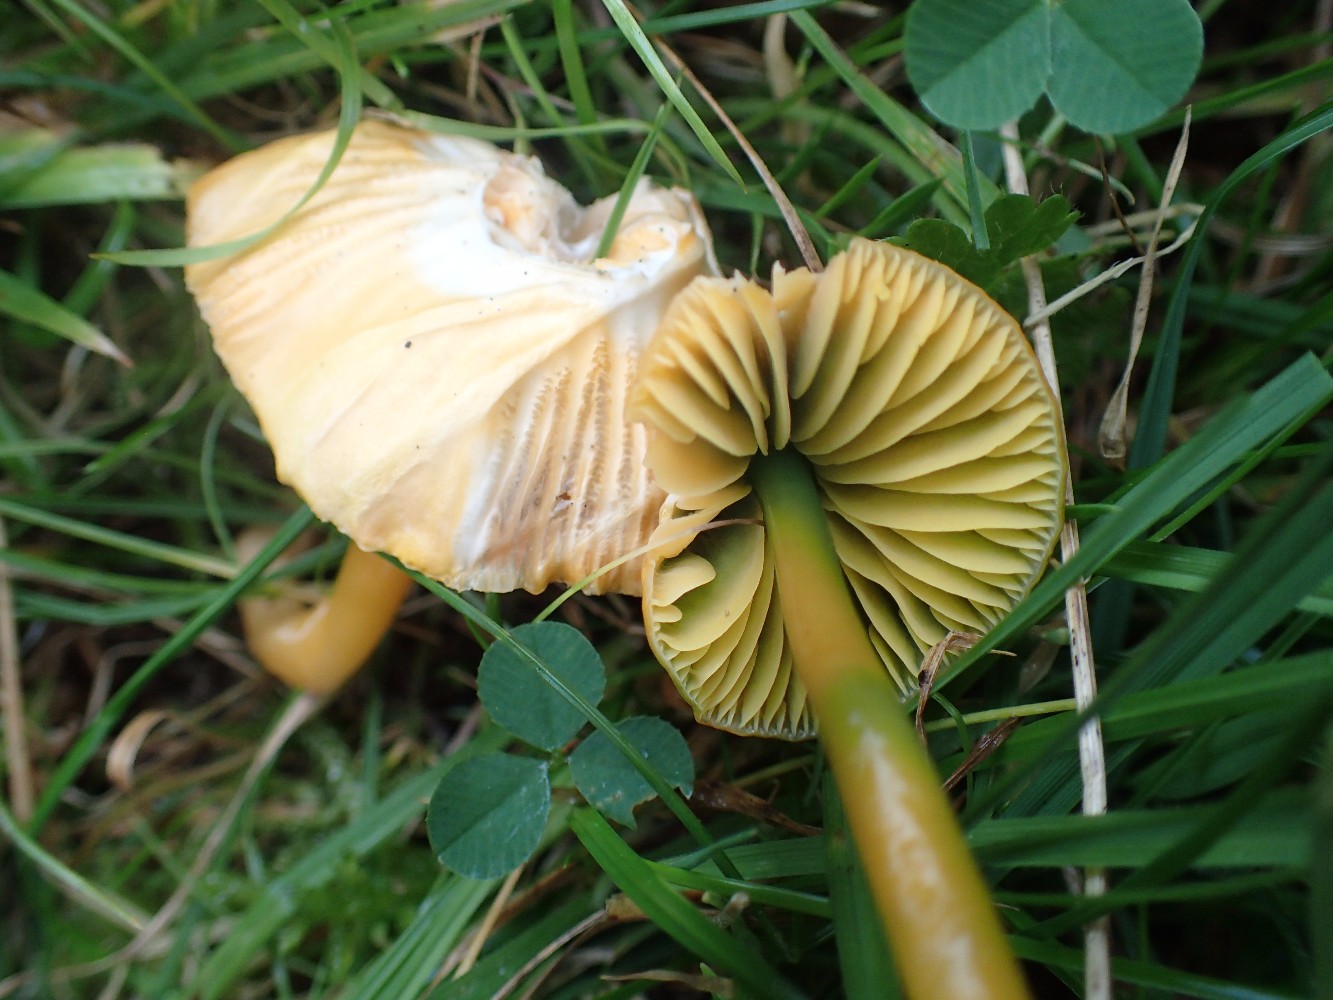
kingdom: Fungi
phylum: Basidiomycota
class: Agaricomycetes
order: Agaricales
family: Hygrophoraceae
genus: Gliophorus
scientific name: Gliophorus psittacinus
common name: papegøje-vokshat
